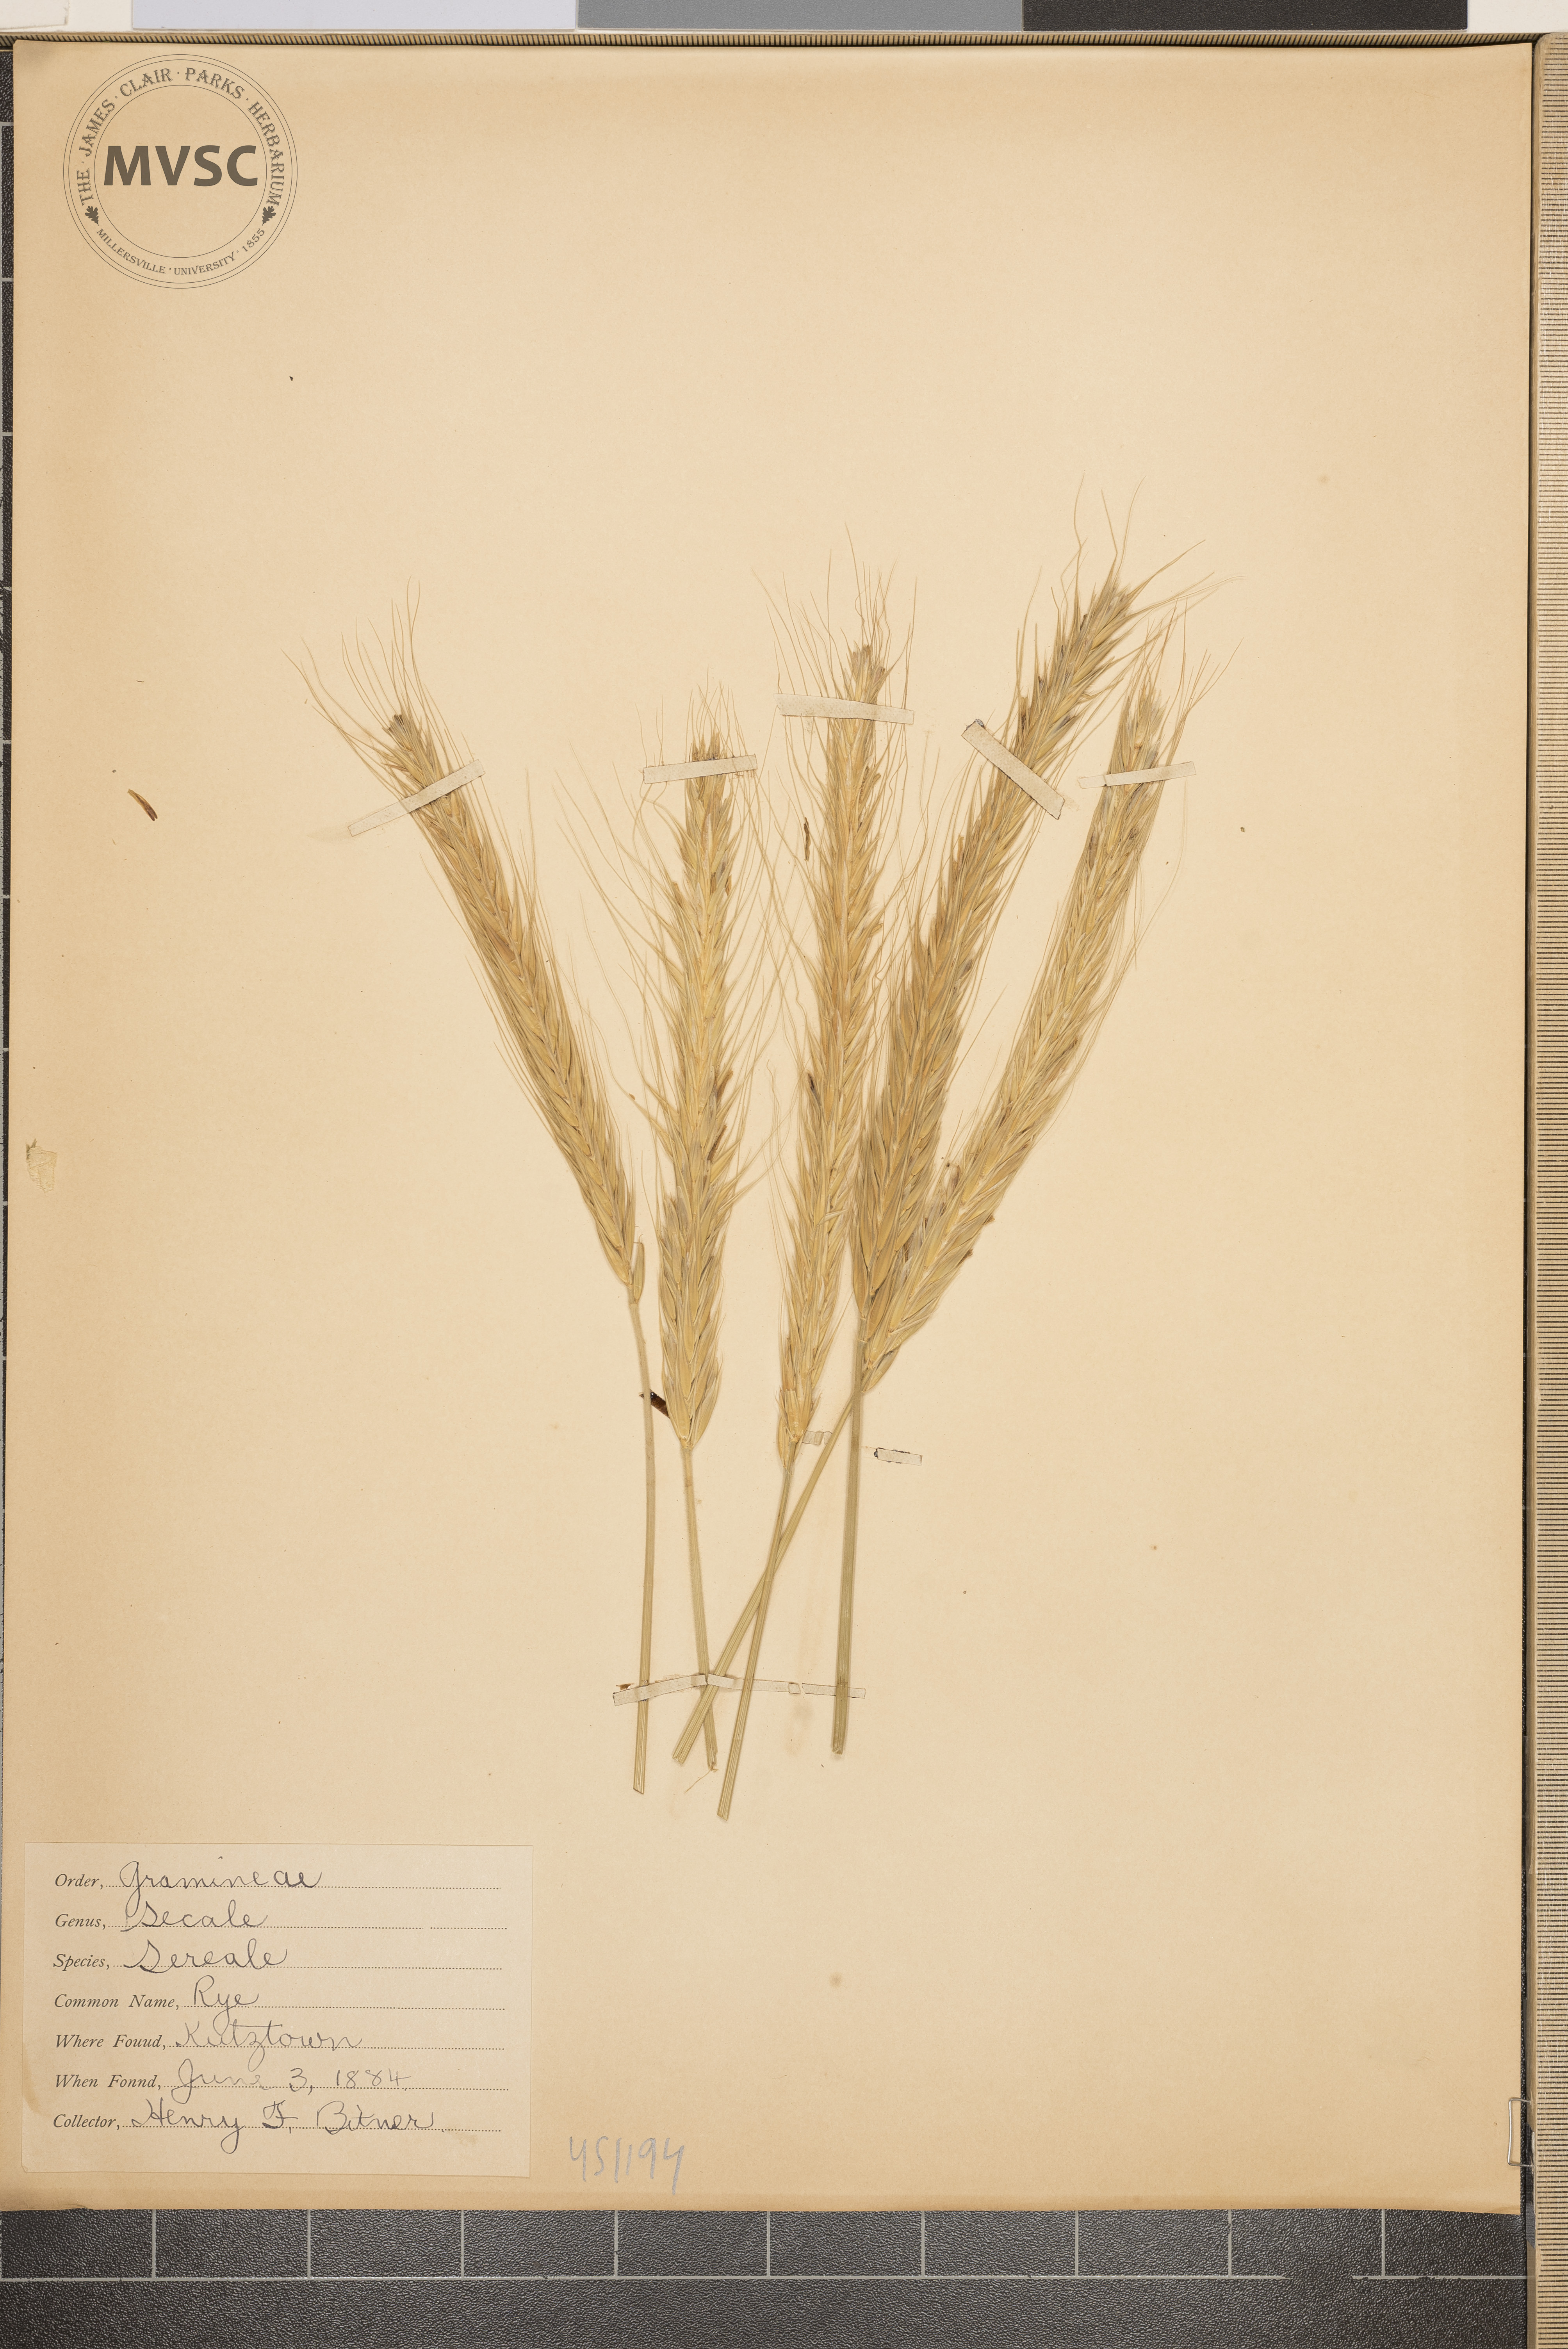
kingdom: Plantae
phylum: Tracheophyta
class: Liliopsida
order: Poales
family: Poaceae
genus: Secale
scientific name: Secale cereale
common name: Rye
